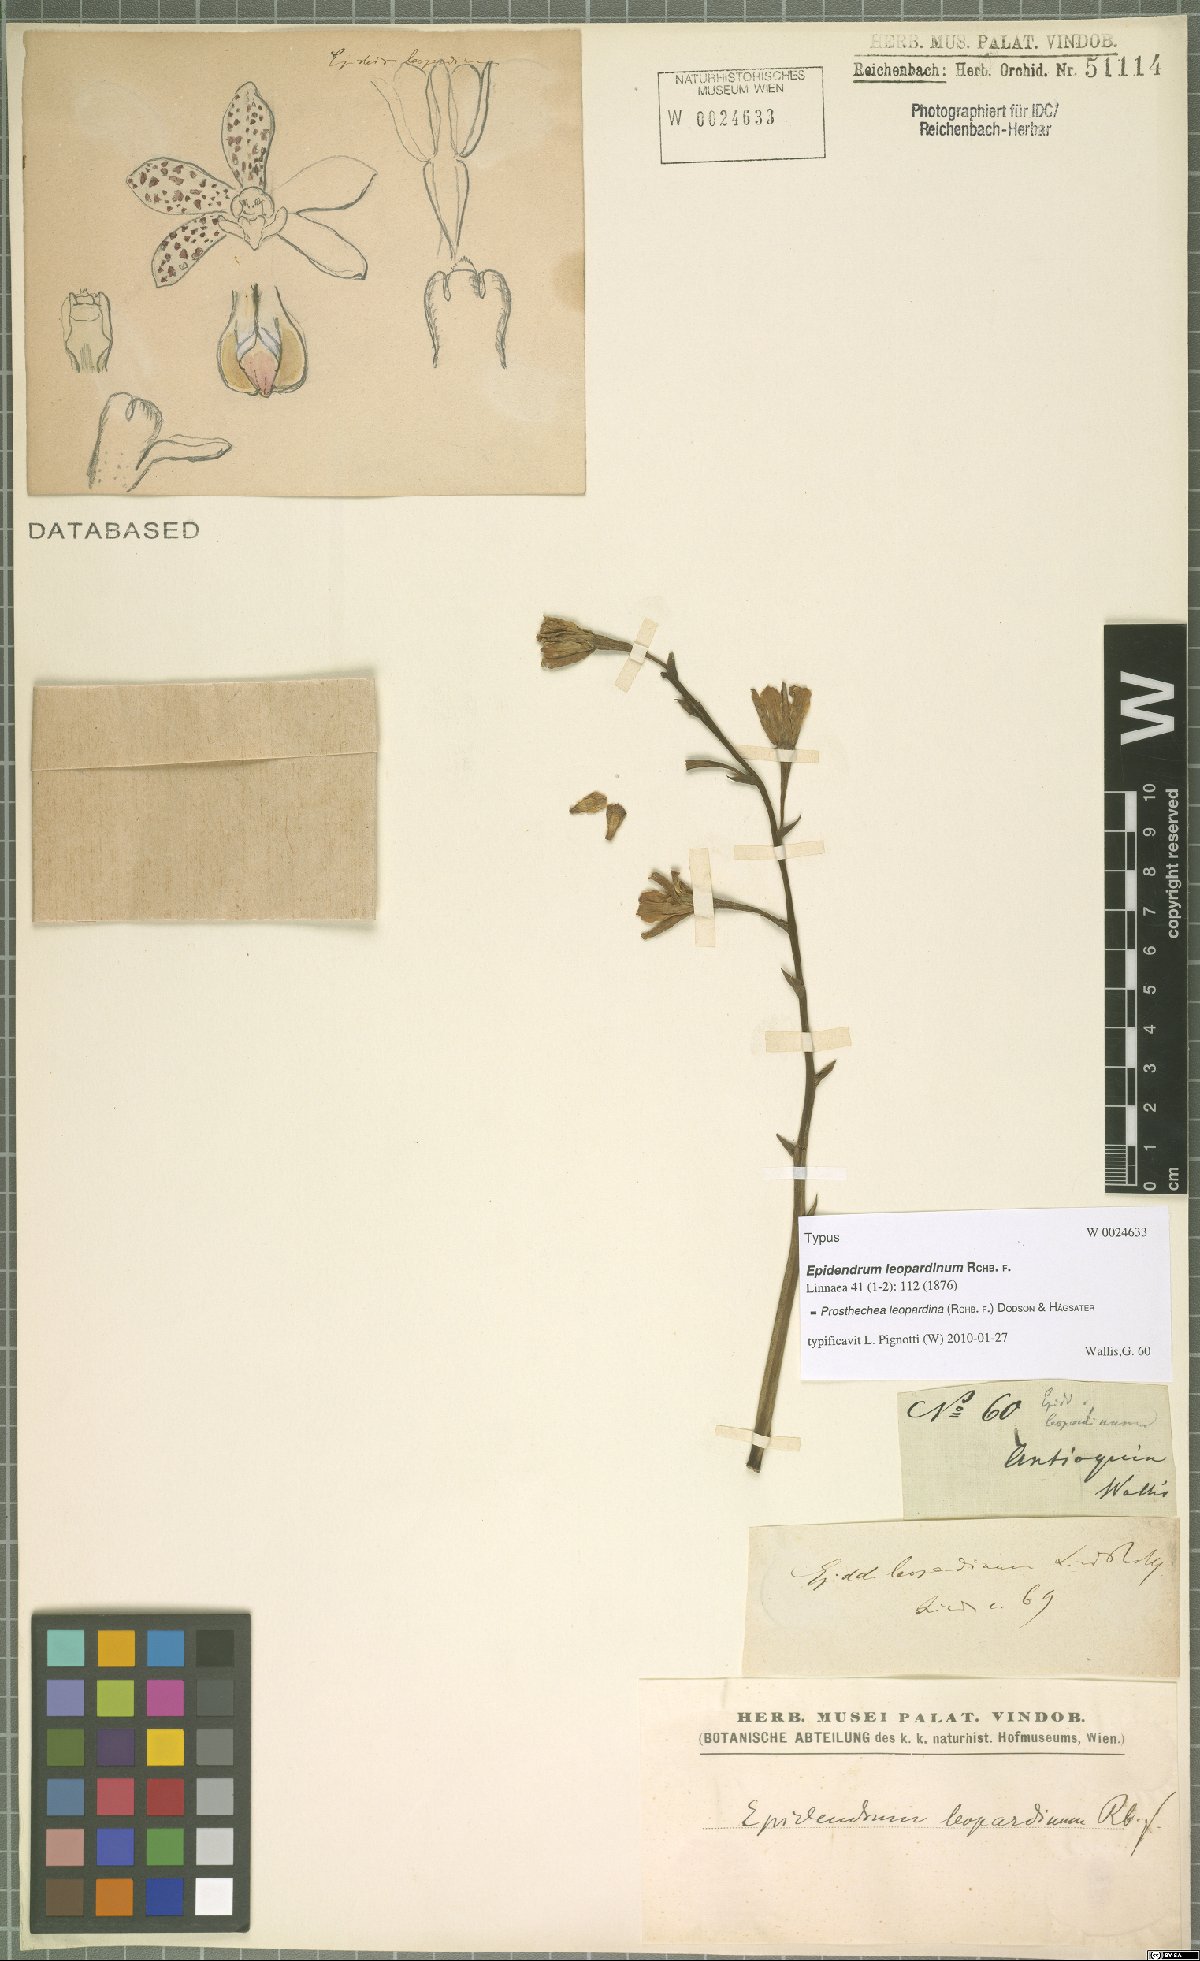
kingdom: Plantae
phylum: Tracheophyta
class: Liliopsida
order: Asparagales
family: Orchidaceae
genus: Prosthechea
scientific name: Prosthechea crassilabia
